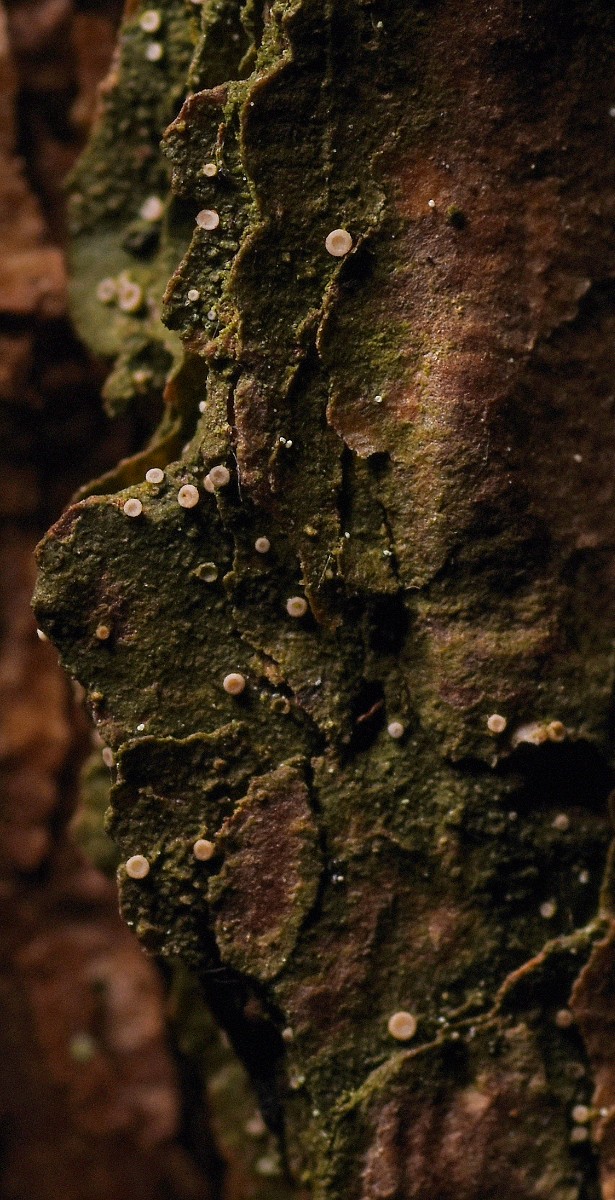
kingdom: Fungi
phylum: Ascomycota
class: Lecanoromycetes
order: Ostropales
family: Coenogoniaceae
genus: Coenogonium
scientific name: Coenogonium pineti
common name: liden vokslav
